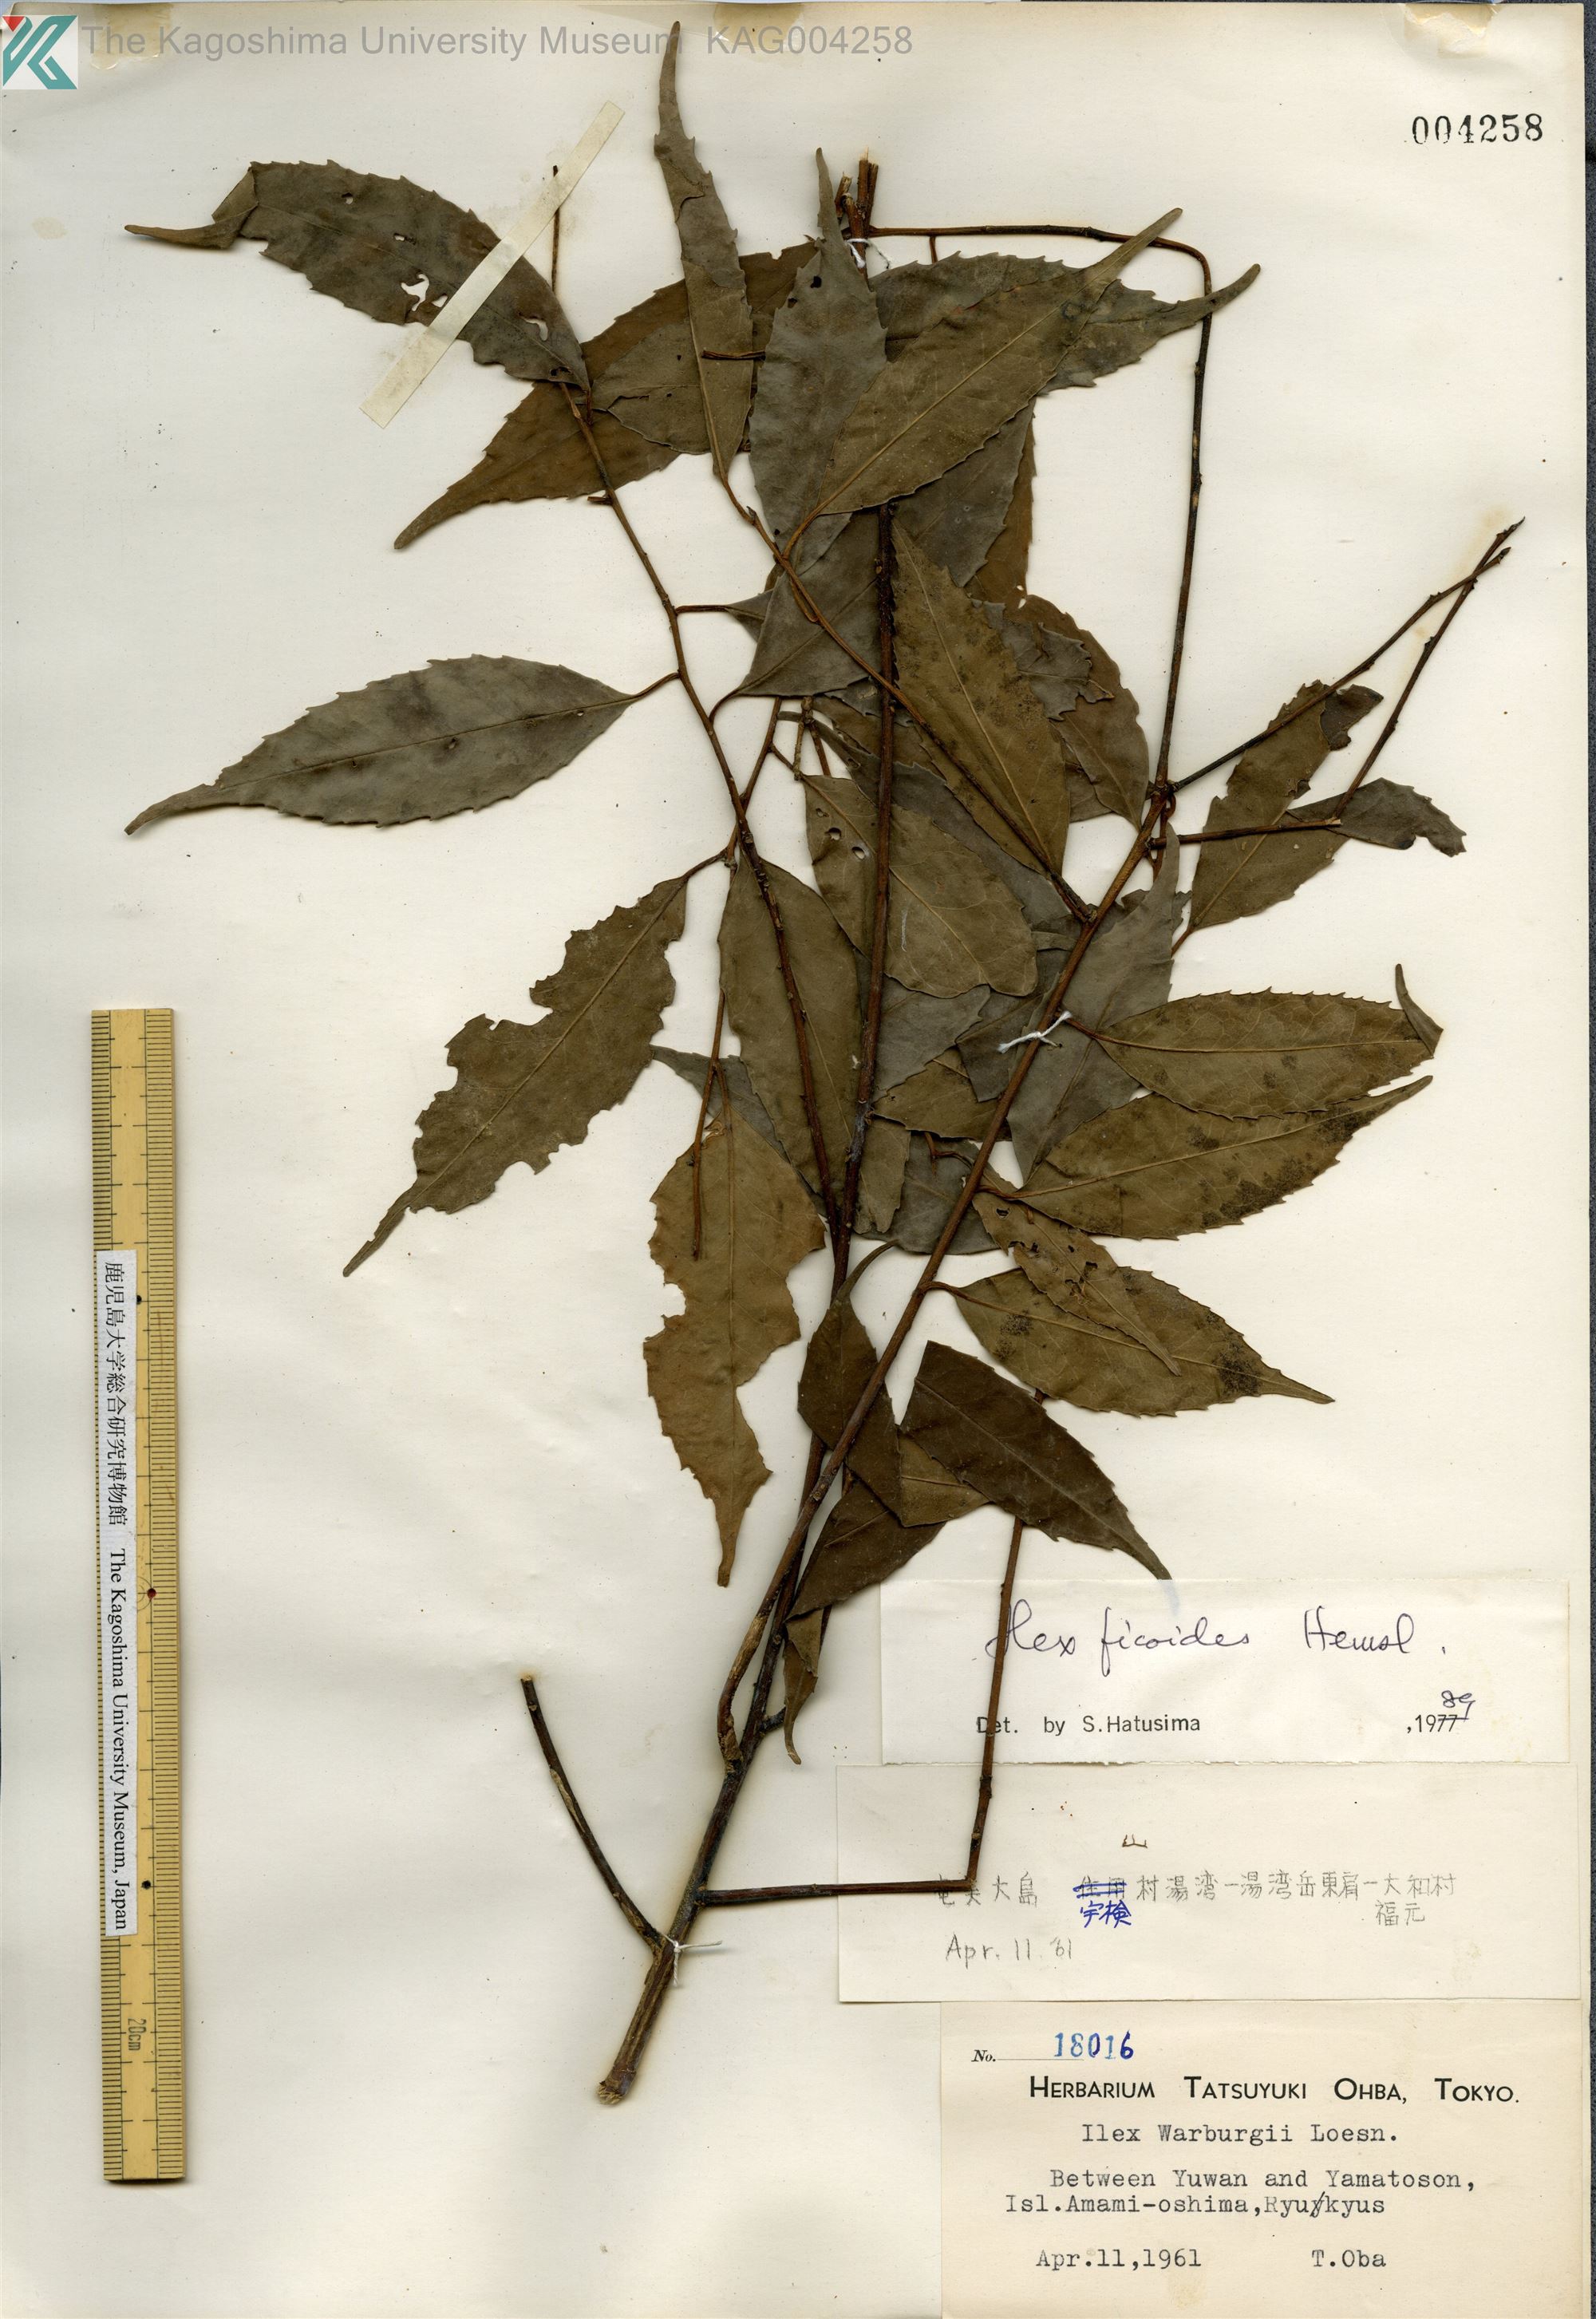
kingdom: Plantae
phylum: Tracheophyta
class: Magnoliopsida
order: Aquifoliales
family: Aquifoliaceae
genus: Ilex
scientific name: Ilex warburgii
